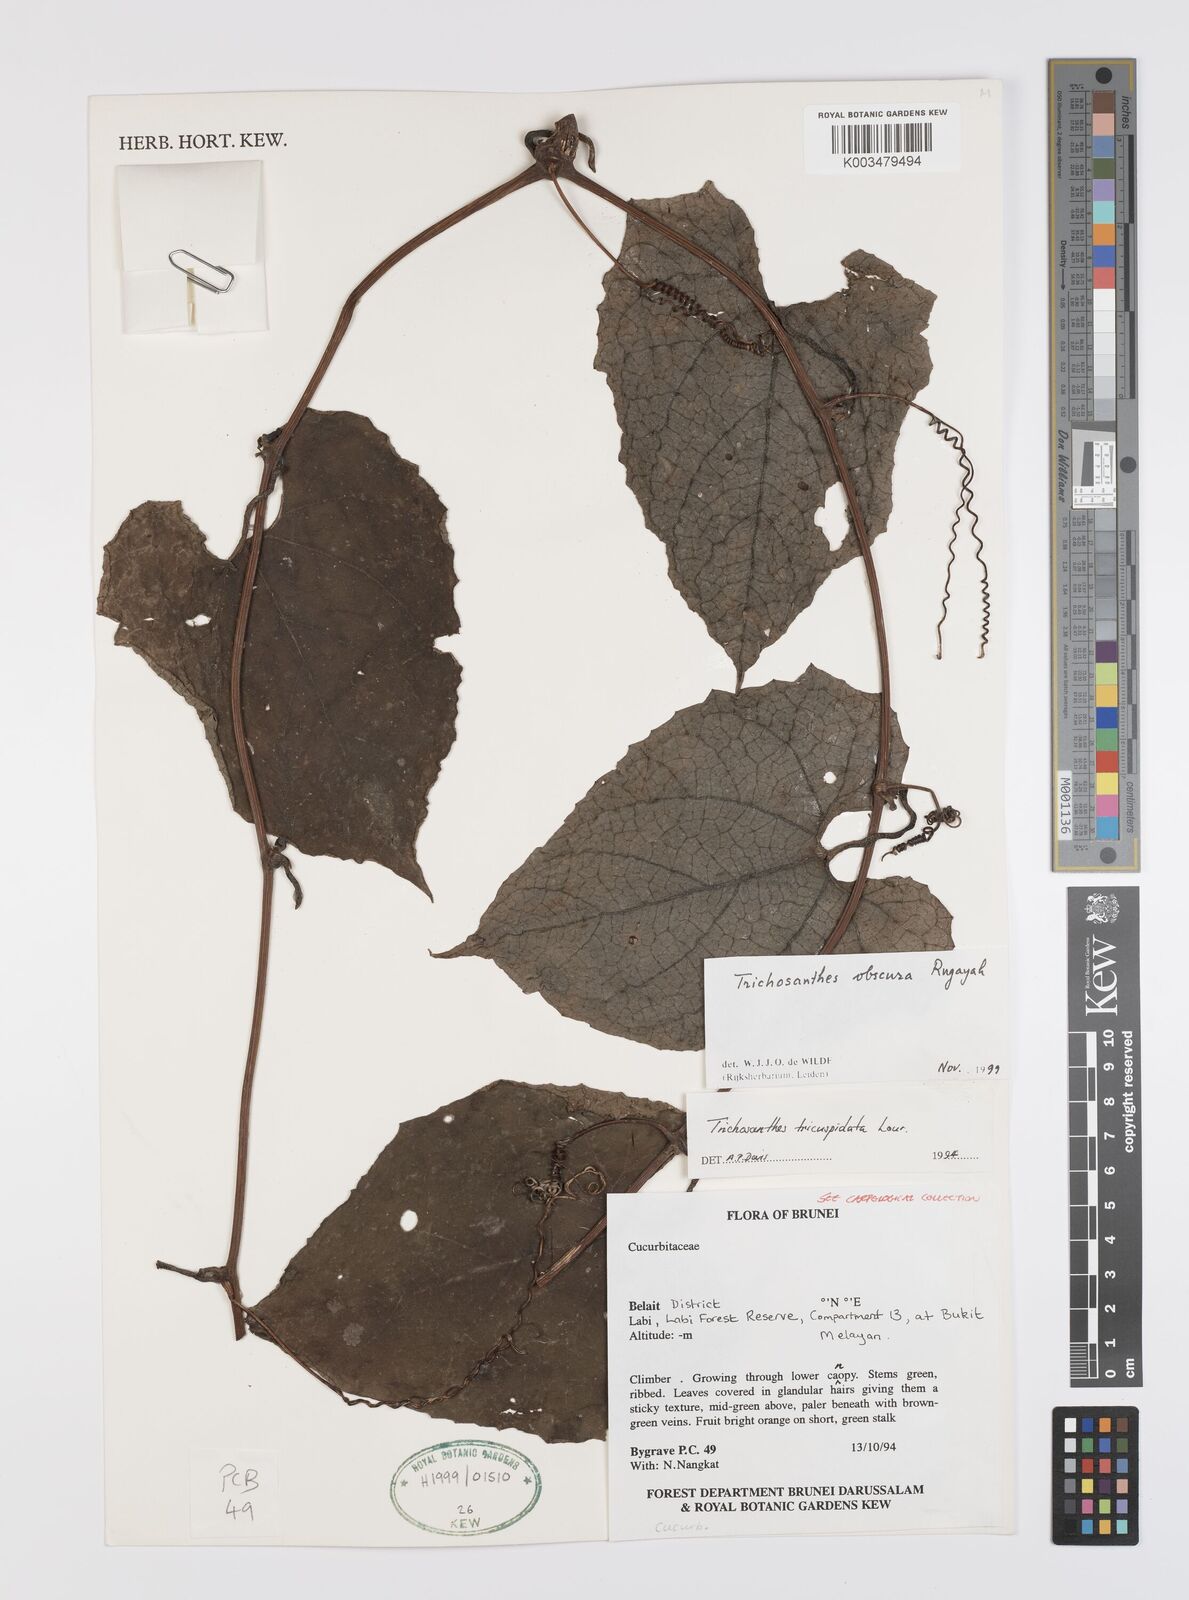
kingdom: Plantae
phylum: Tracheophyta
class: Magnoliopsida
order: Cucurbitales
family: Cucurbitaceae
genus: Trichosanthes
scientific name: Trichosanthes obscura
